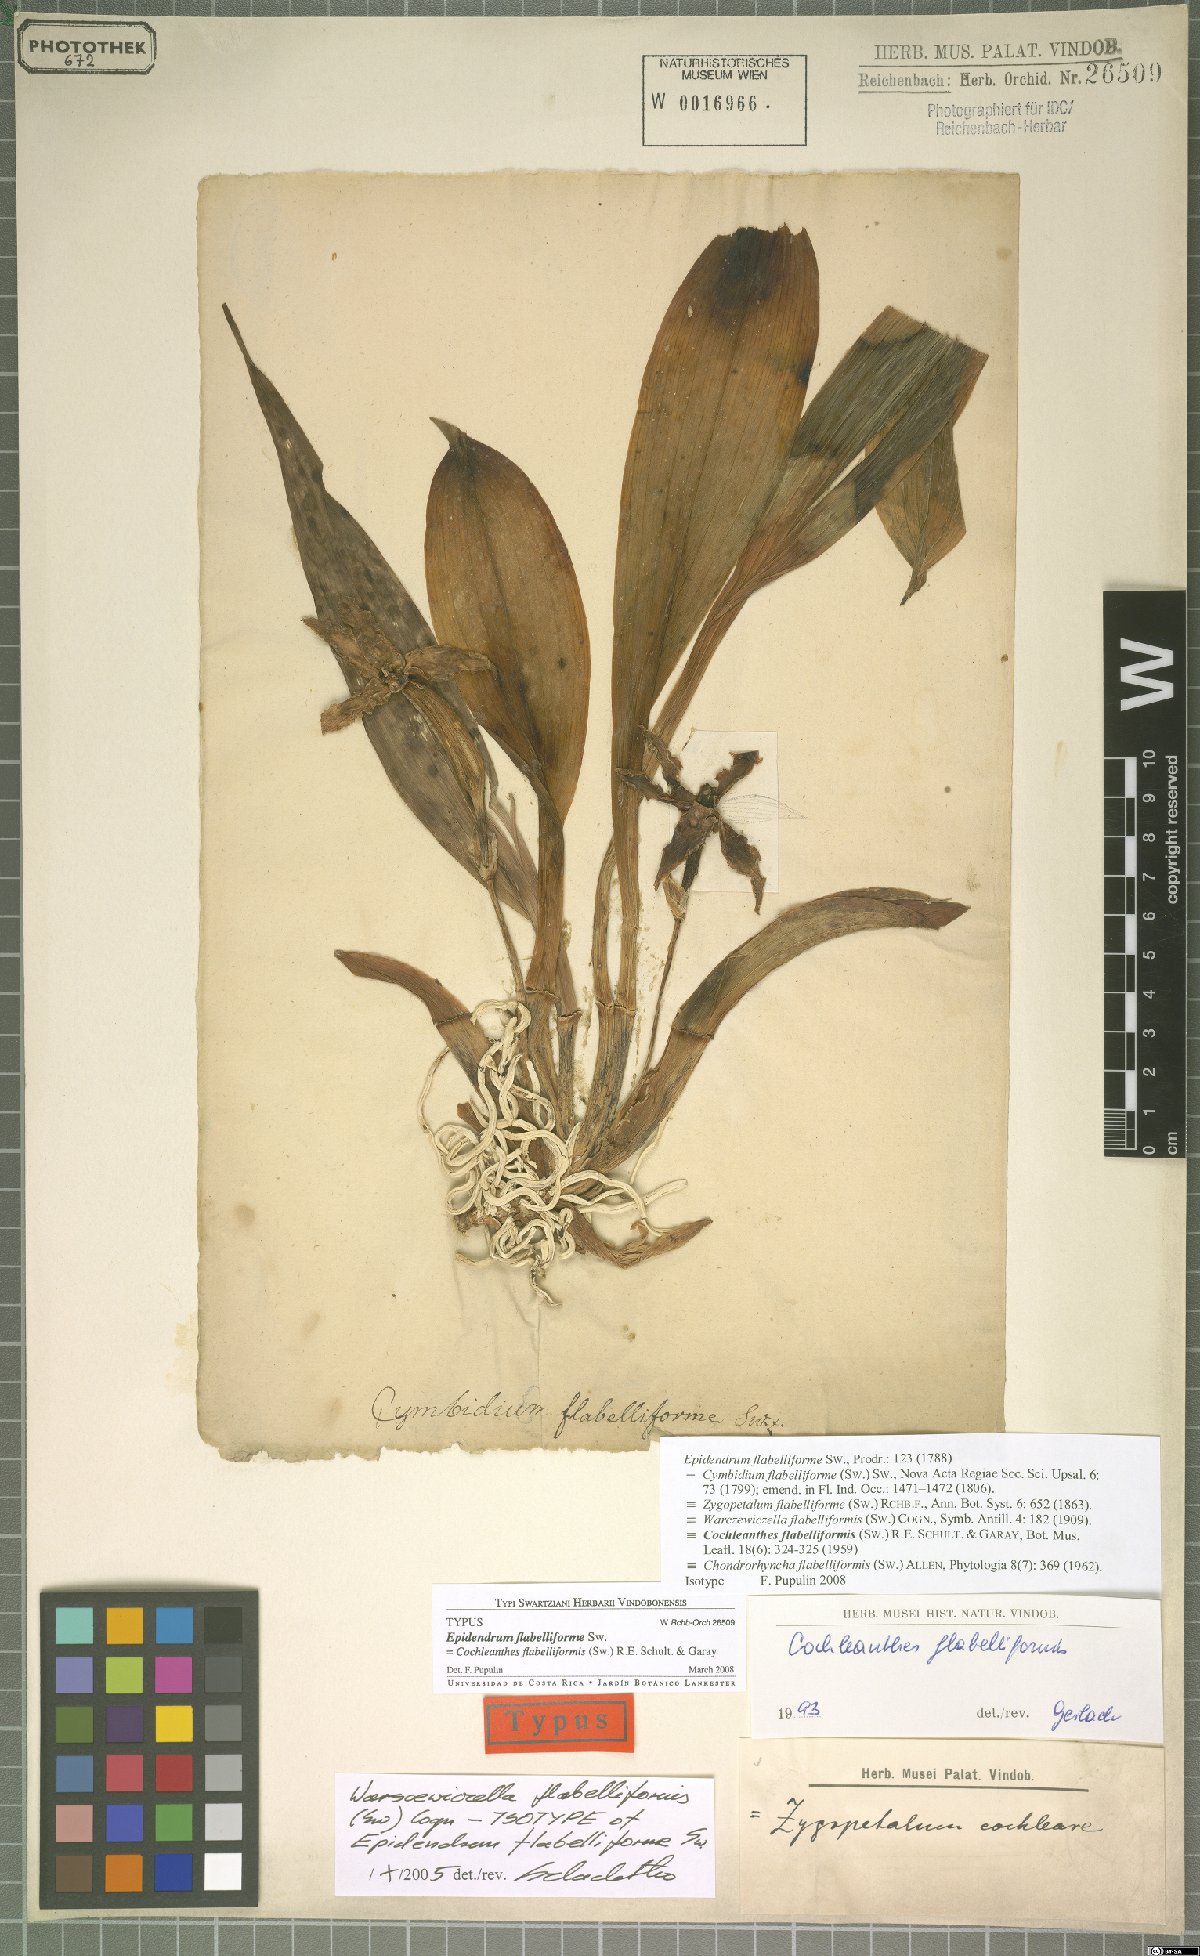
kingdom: Plantae
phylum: Tracheophyta
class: Liliopsida
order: Asparagales
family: Orchidaceae
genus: Cochleanthes
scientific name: Cochleanthes flabelliformis
